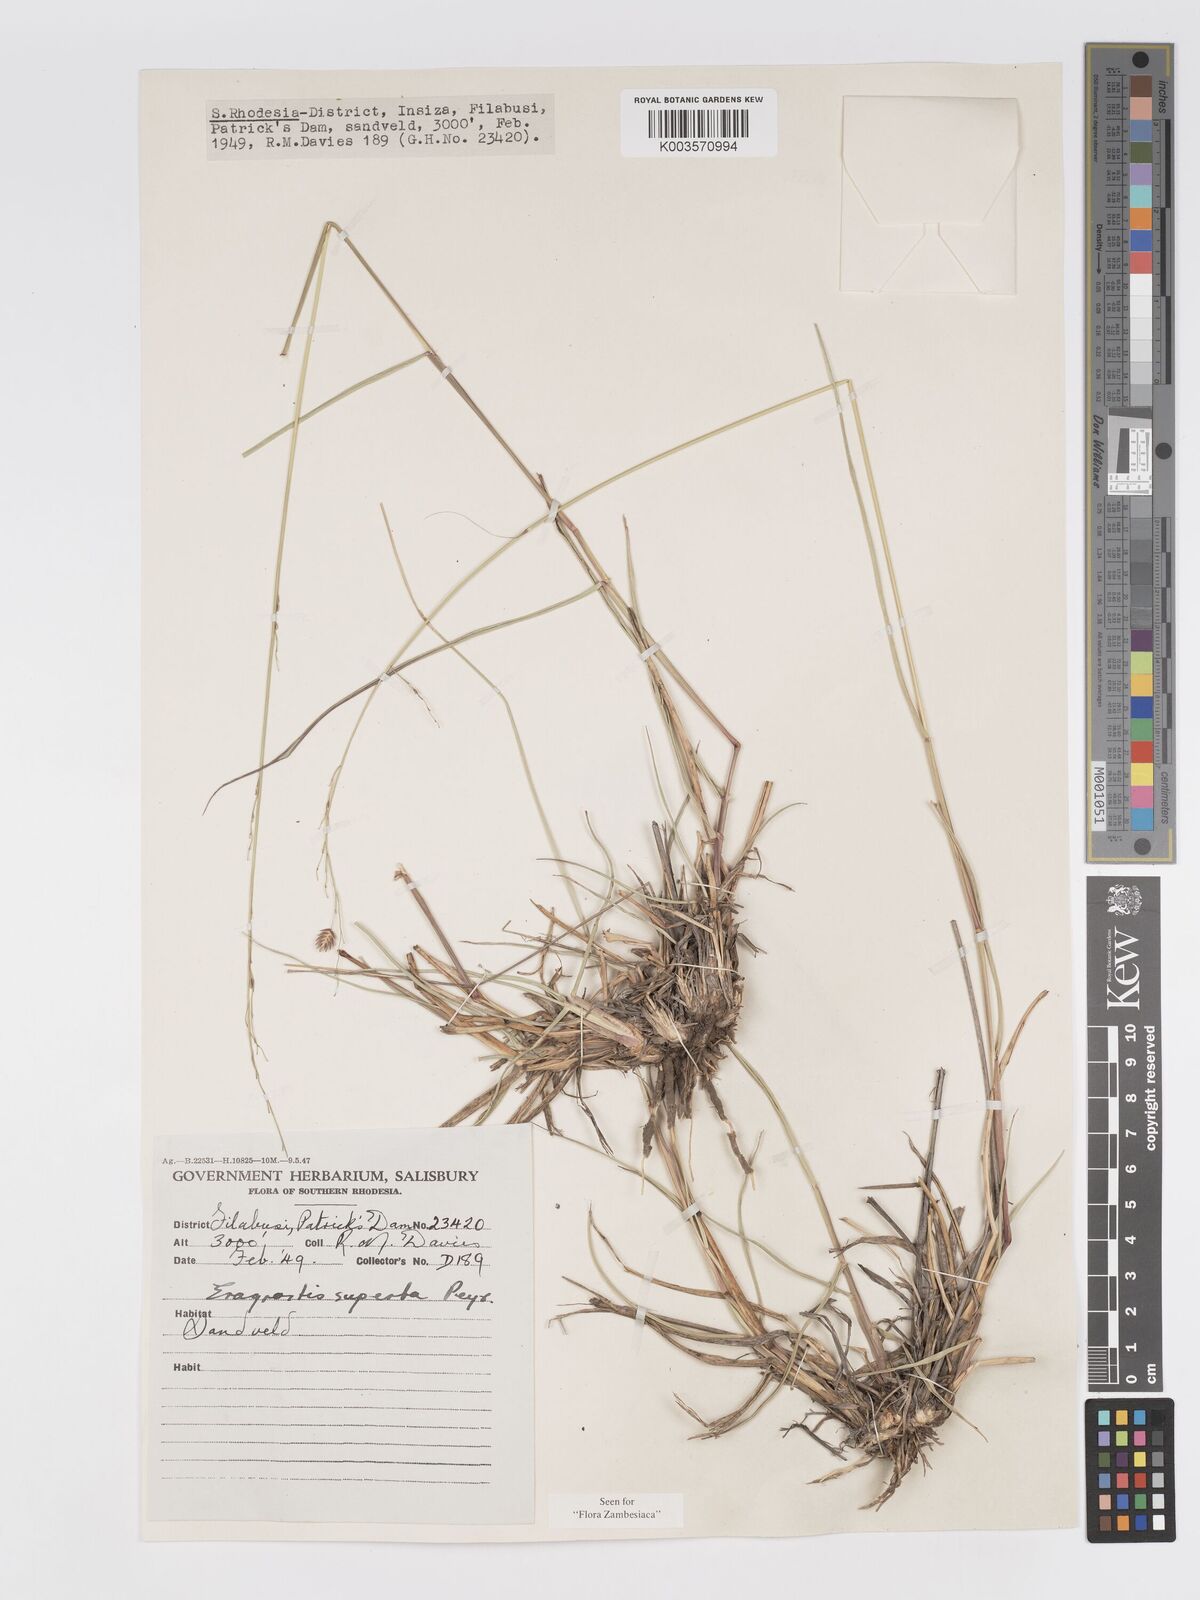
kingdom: Plantae
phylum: Tracheophyta
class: Liliopsida
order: Poales
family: Poaceae
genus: Eragrostis
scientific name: Eragrostis superba
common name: Wilman lovegrass
